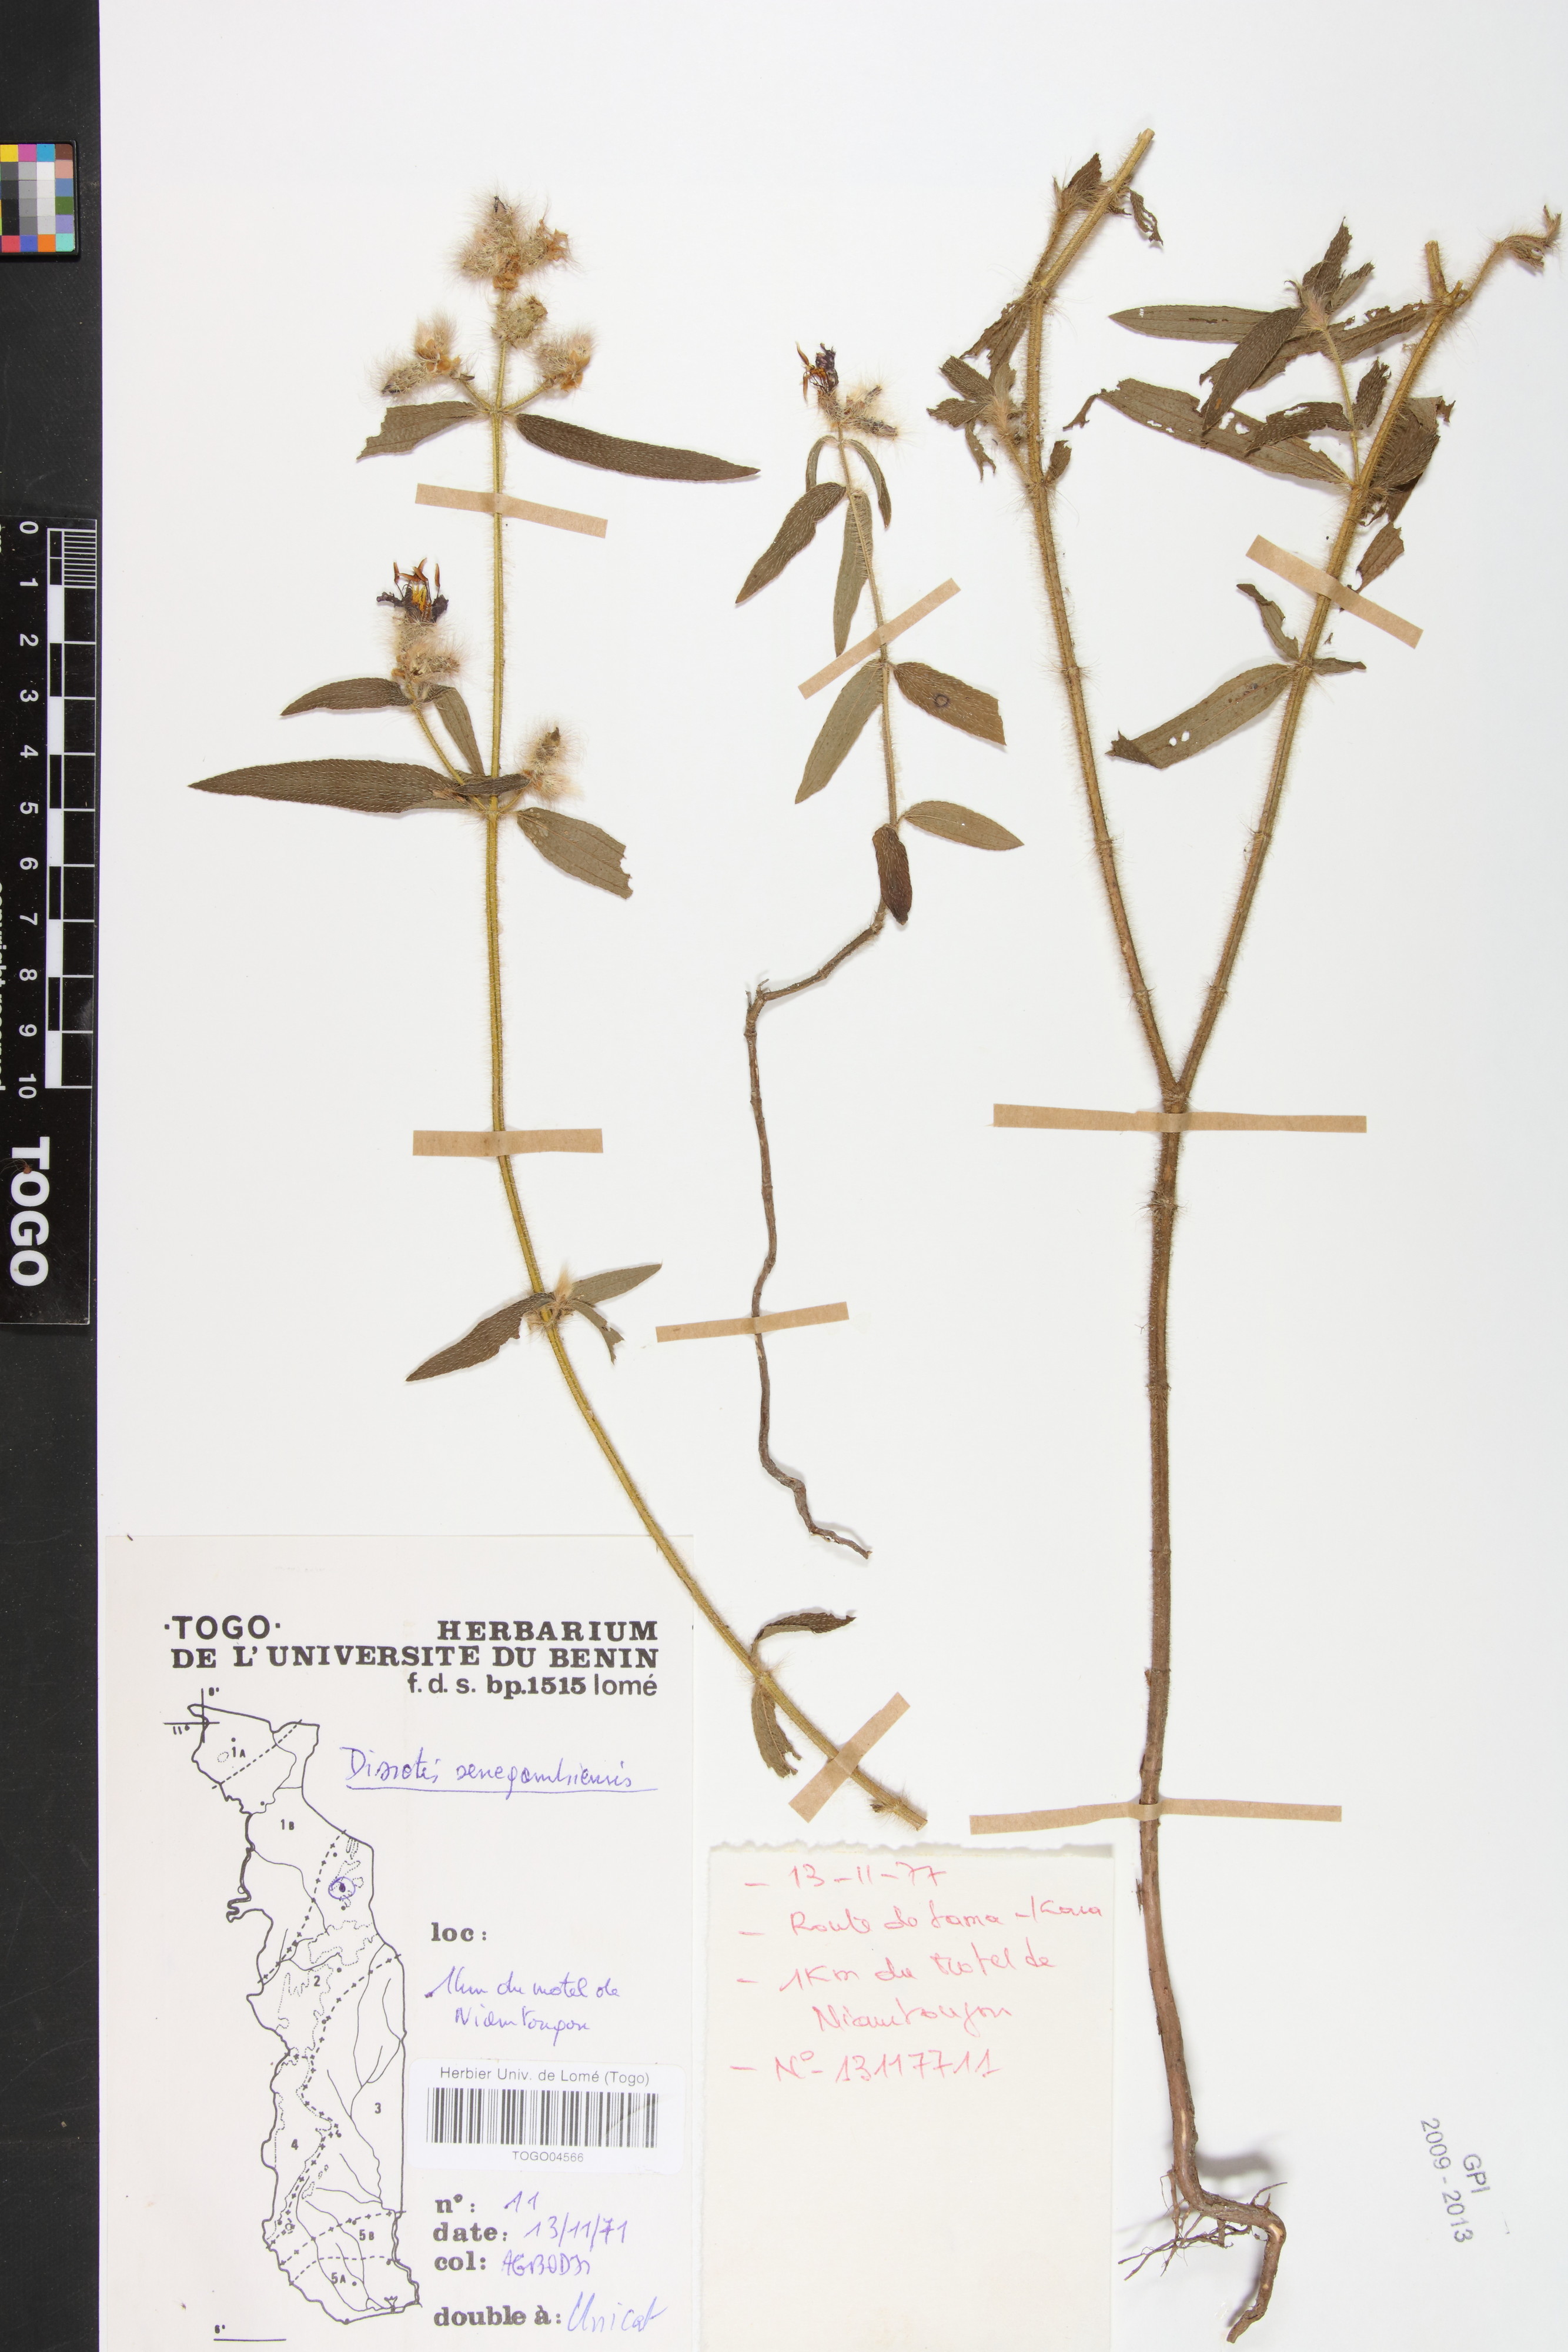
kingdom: Plantae
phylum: Tracheophyta
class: Magnoliopsida
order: Myrtales
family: Melastomataceae
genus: Antherotoma
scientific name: Antherotoma irvingiana
